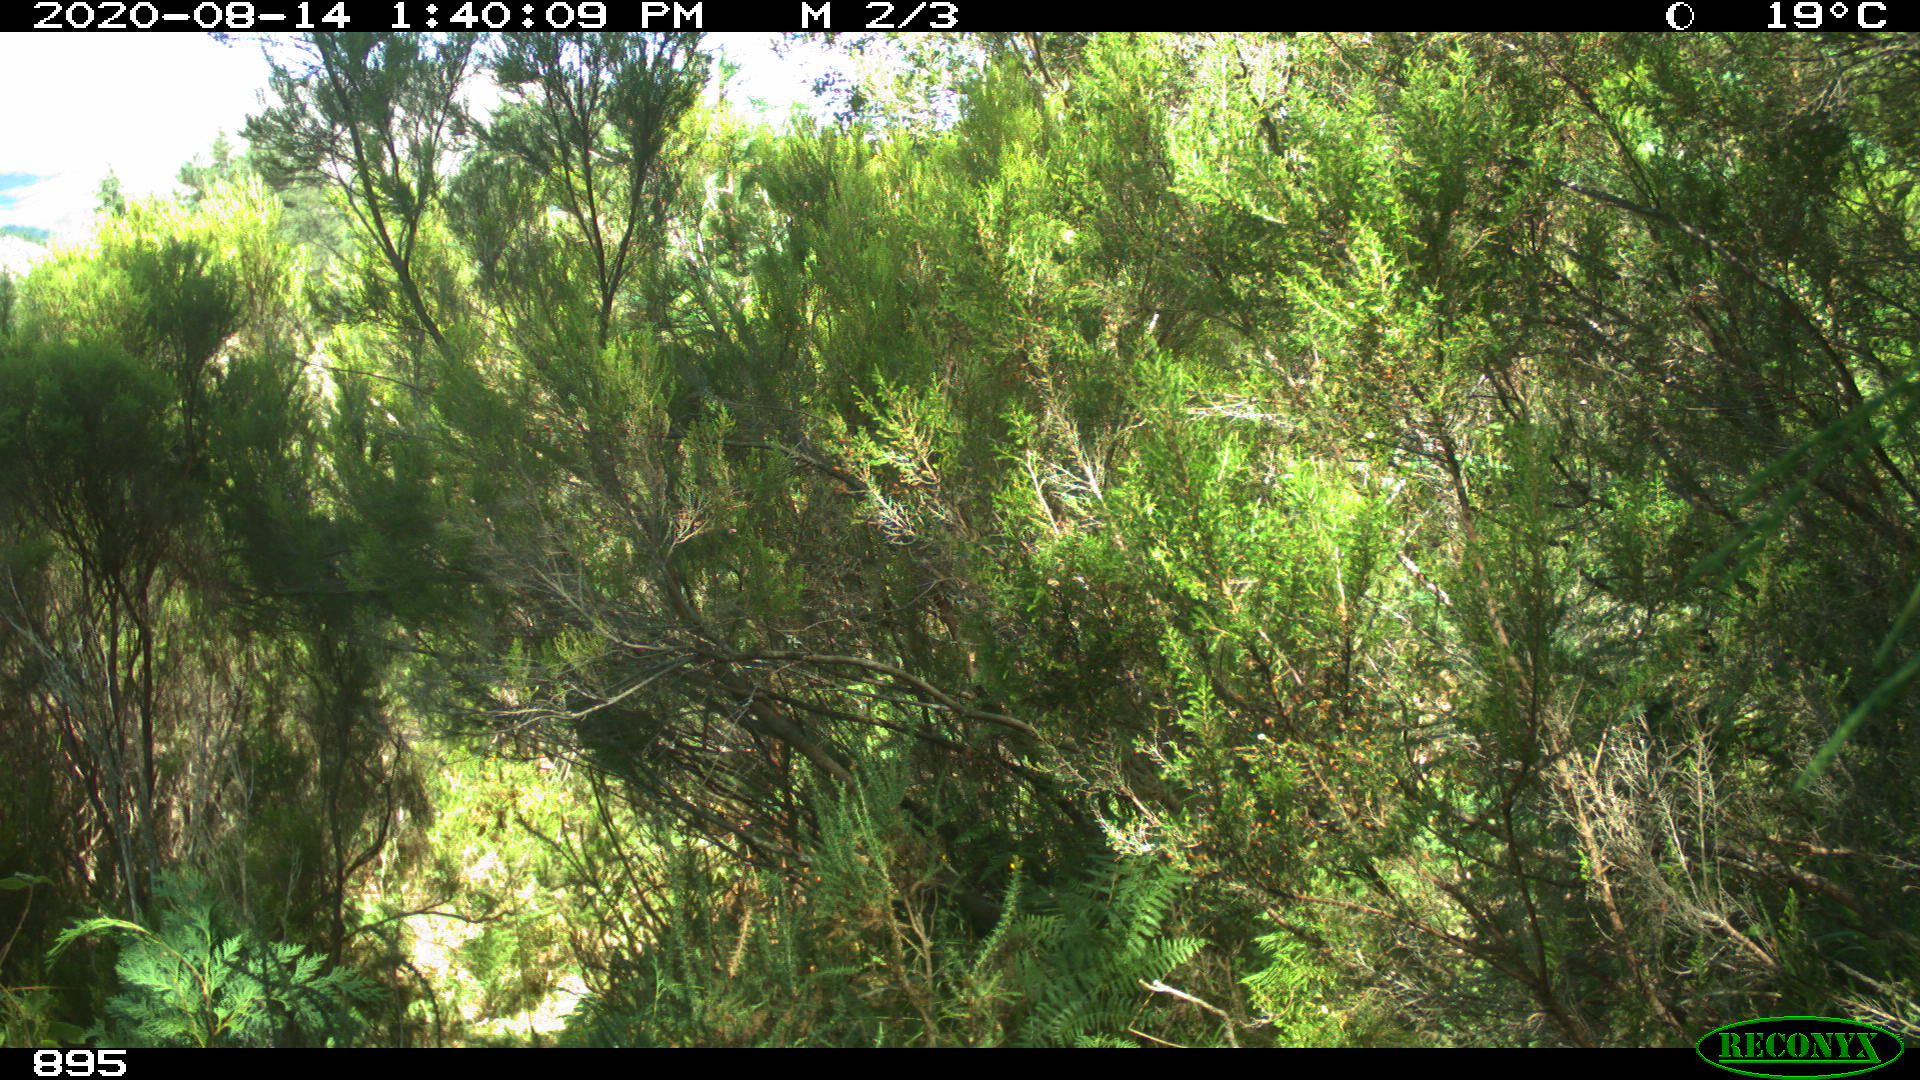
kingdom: Animalia
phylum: Chordata
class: Mammalia
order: Artiodactyla
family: Bovidae
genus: Bos
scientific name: Bos taurus
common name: Domesticated cattle
